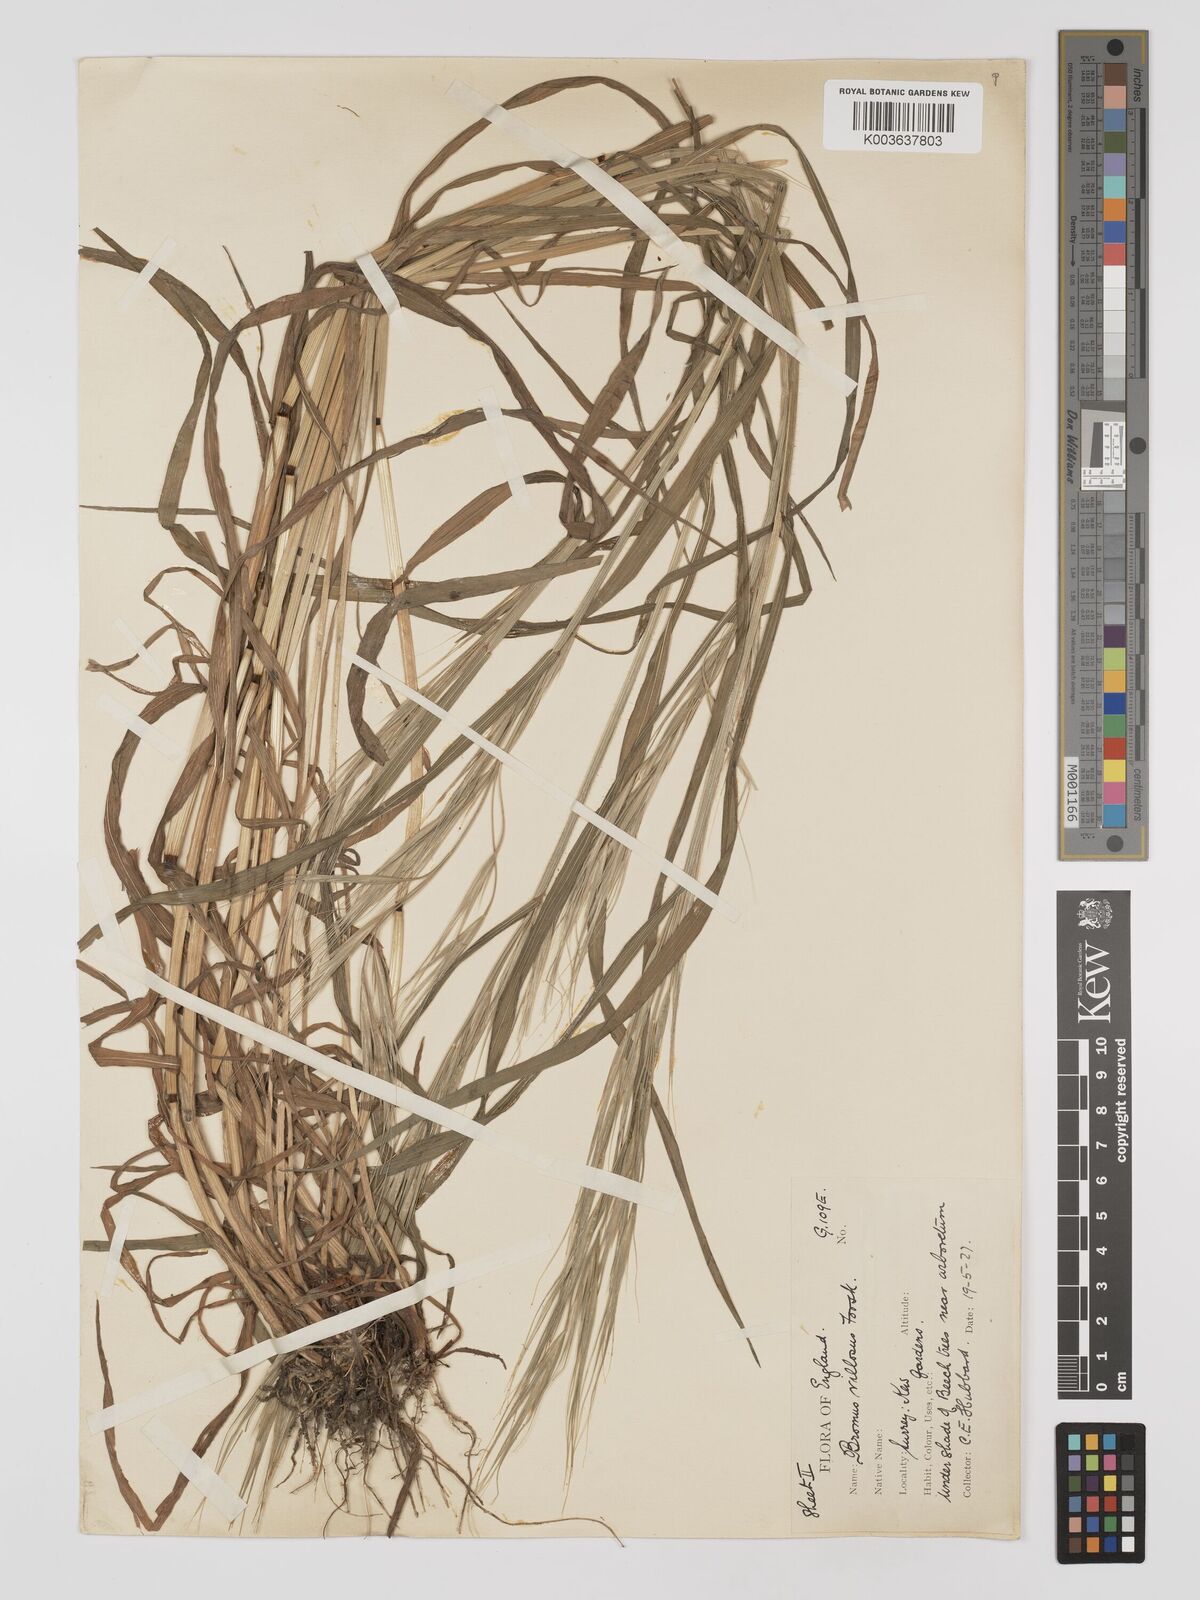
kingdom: Plantae
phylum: Tracheophyta
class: Liliopsida
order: Poales
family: Poaceae
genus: Bromus
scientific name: Bromus
